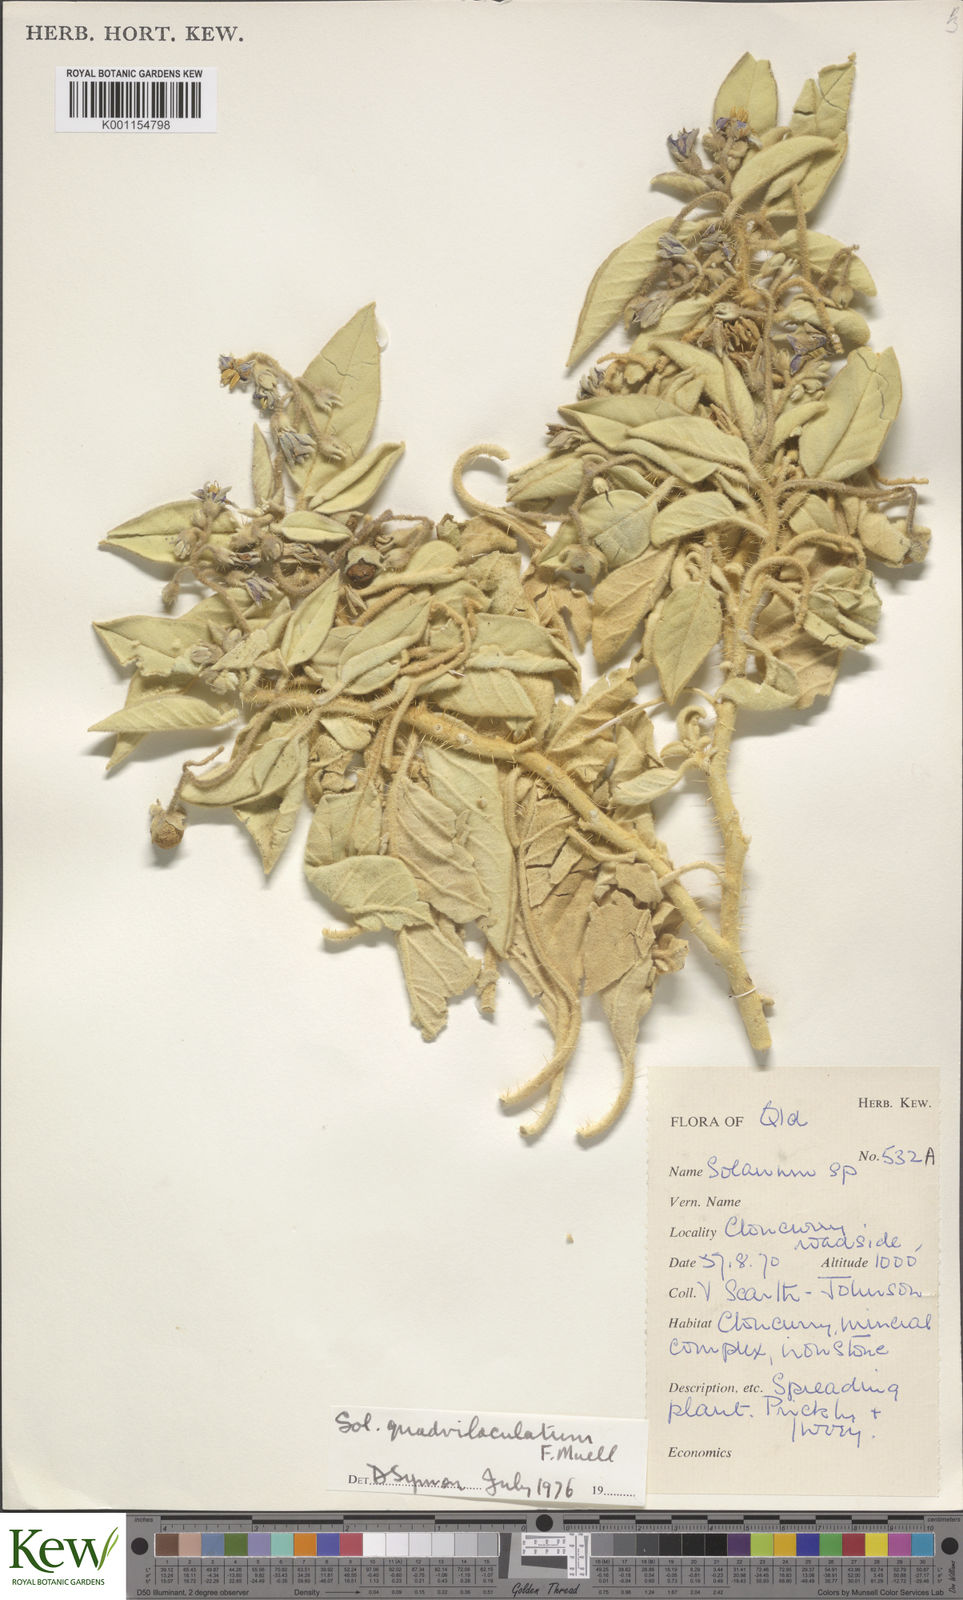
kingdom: Plantae
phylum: Tracheophyta
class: Magnoliopsida
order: Solanales
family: Solanaceae
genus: Solanum
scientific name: Solanum quadriloculatum
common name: Wild tomato
